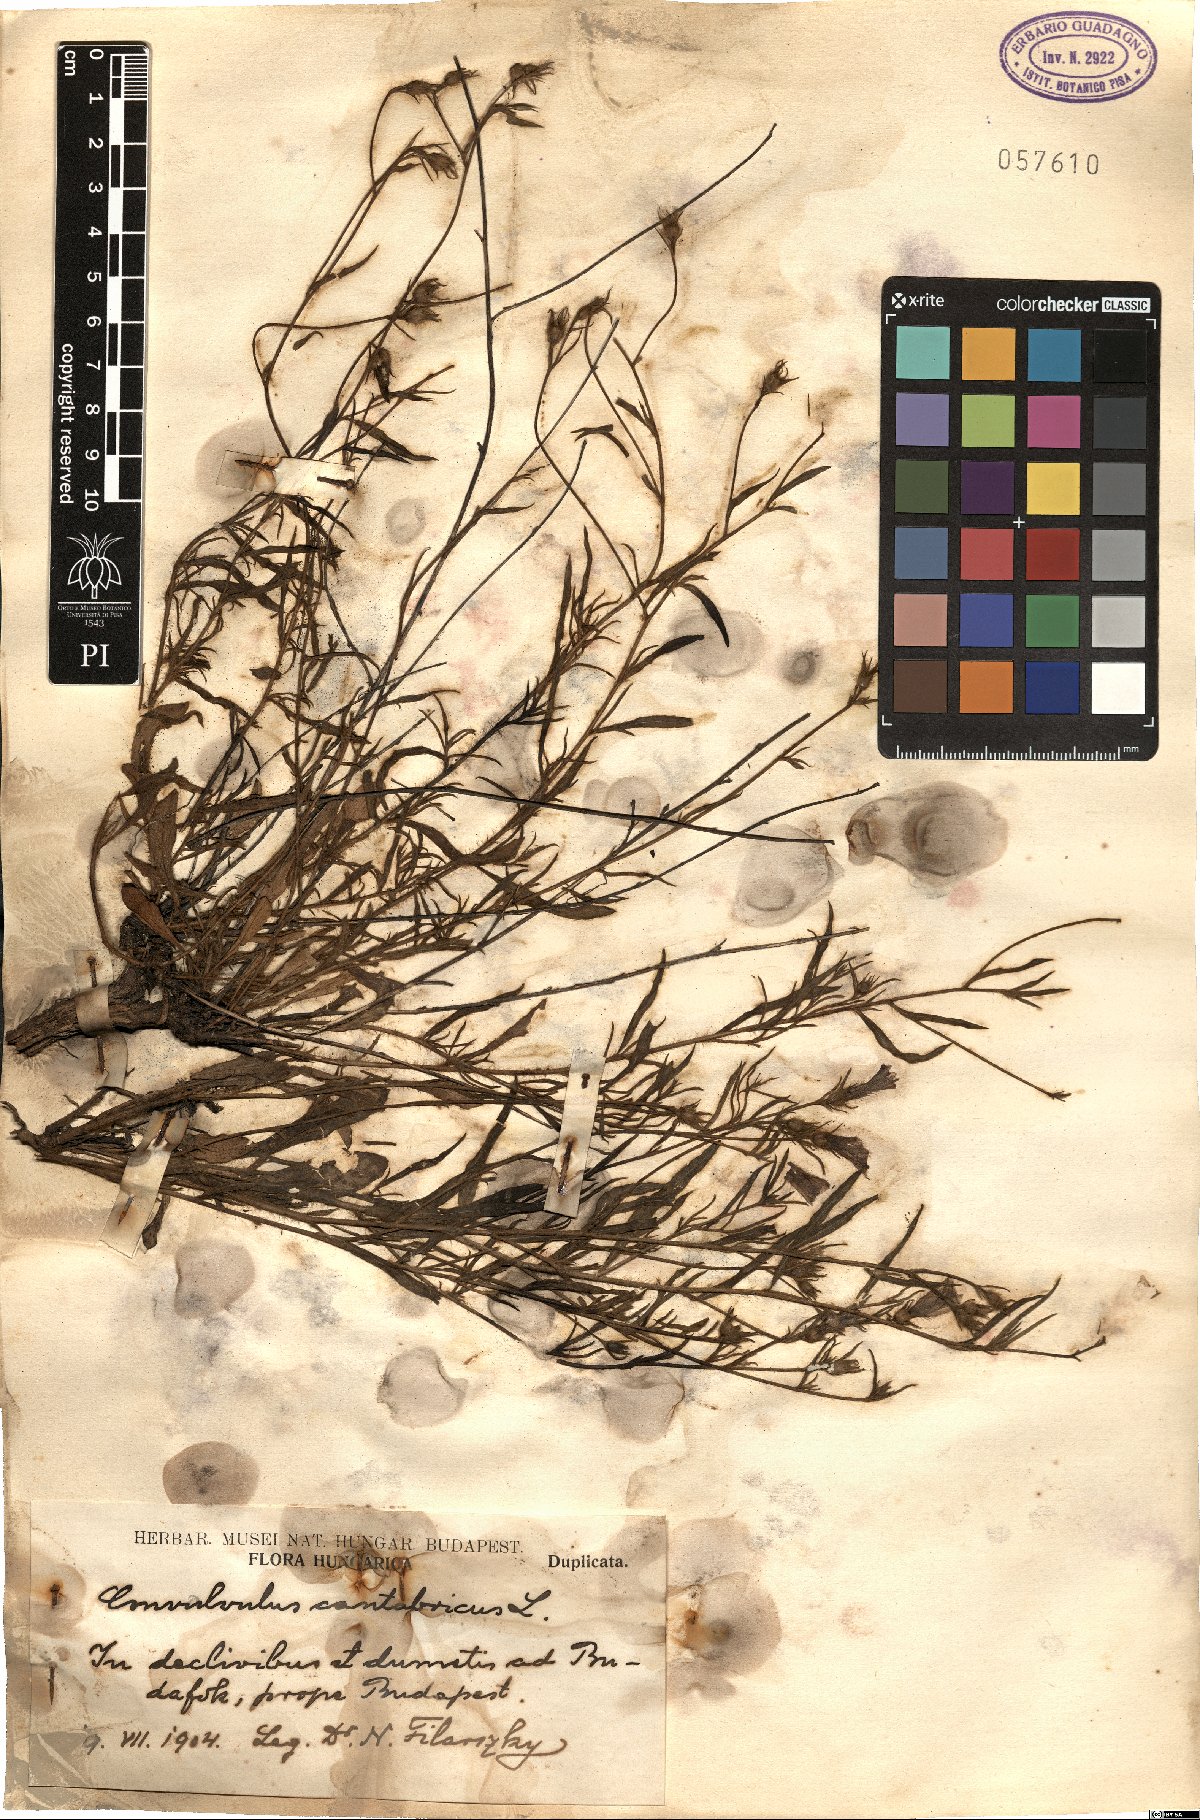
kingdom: Plantae
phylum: Tracheophyta
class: Magnoliopsida
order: Solanales
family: Convolvulaceae
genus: Convolvulus
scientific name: Convolvulus cantabrica
